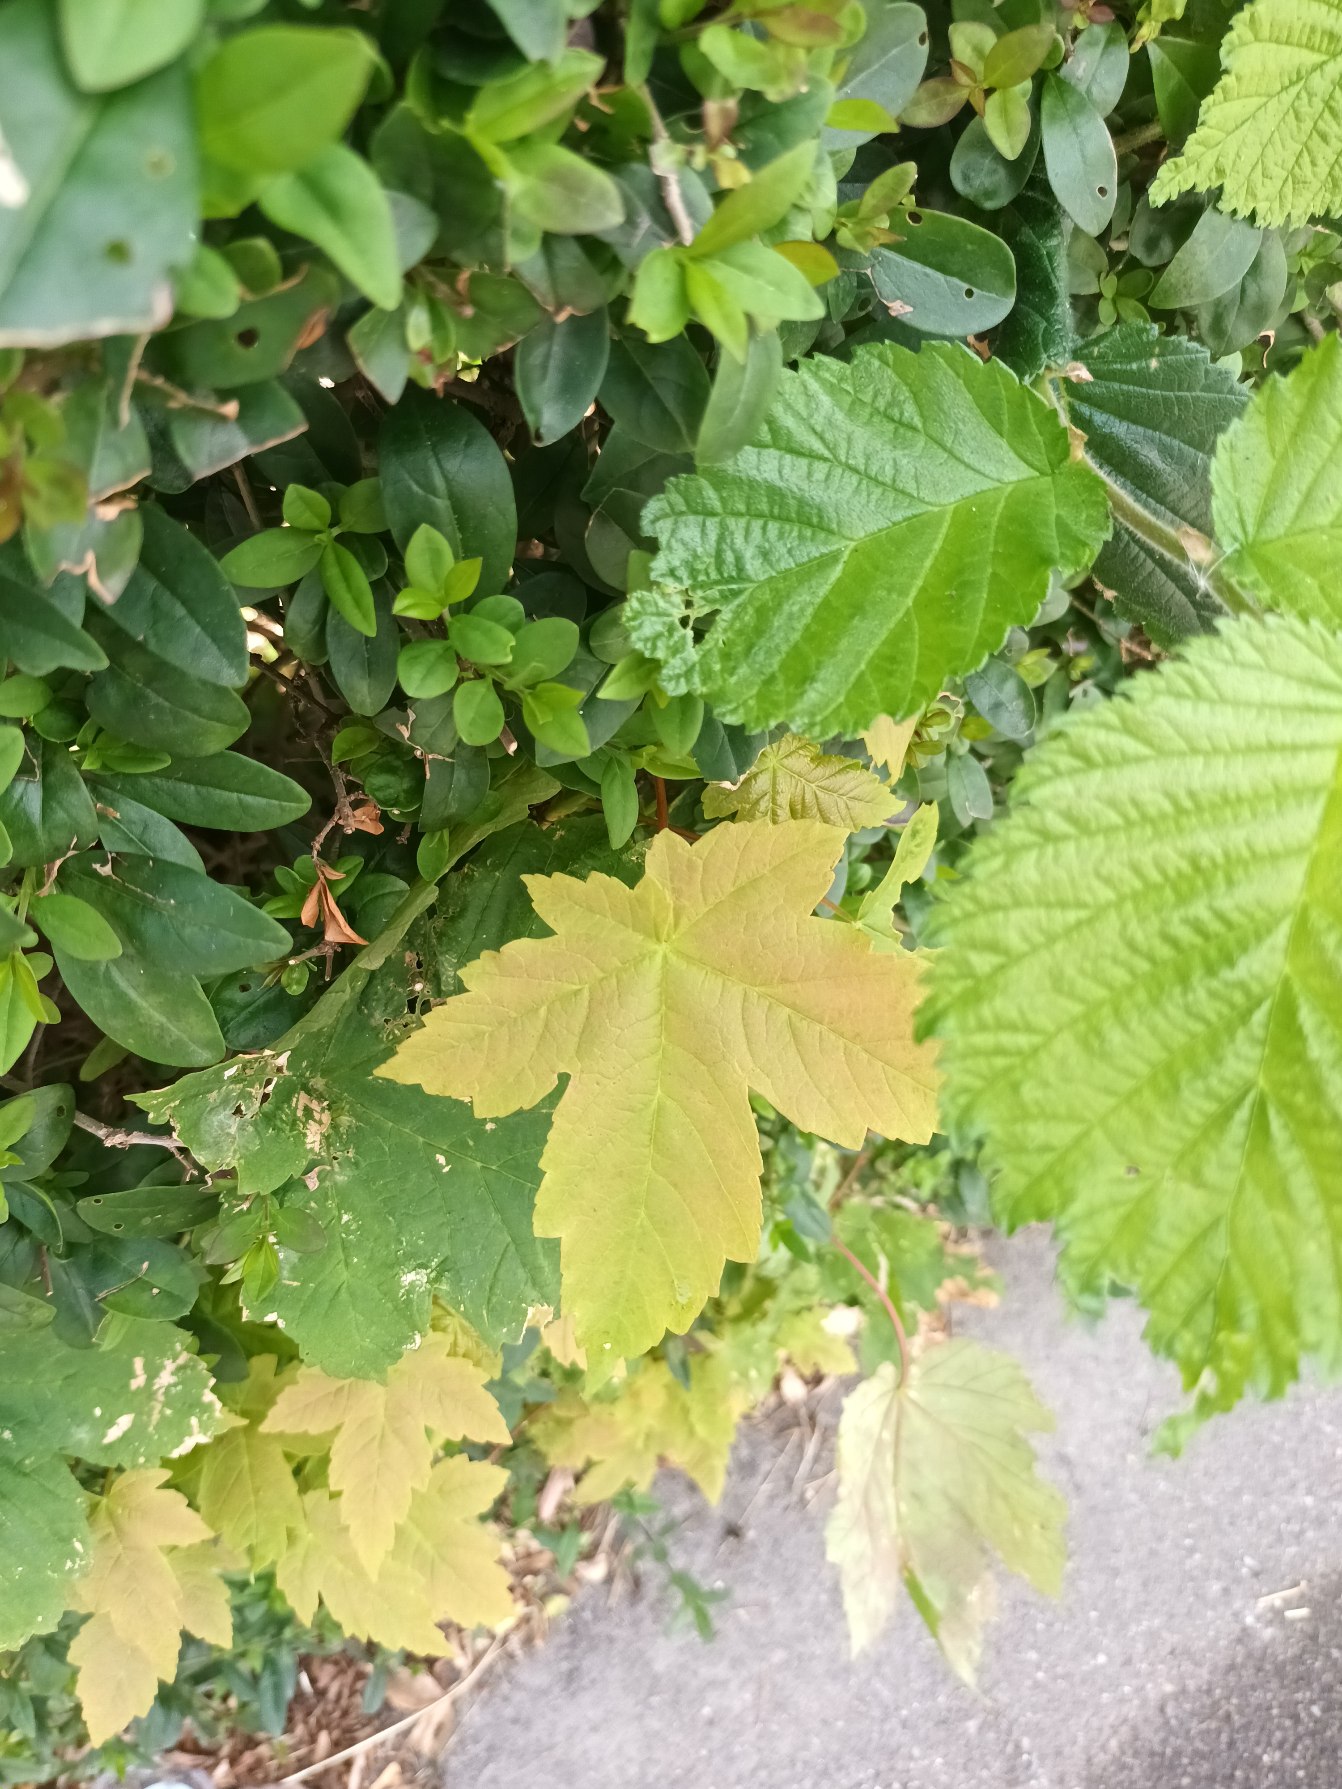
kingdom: Plantae
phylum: Tracheophyta
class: Magnoliopsida
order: Sapindales
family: Sapindaceae
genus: Acer
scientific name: Acer pseudoplatanus
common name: Ahorn
